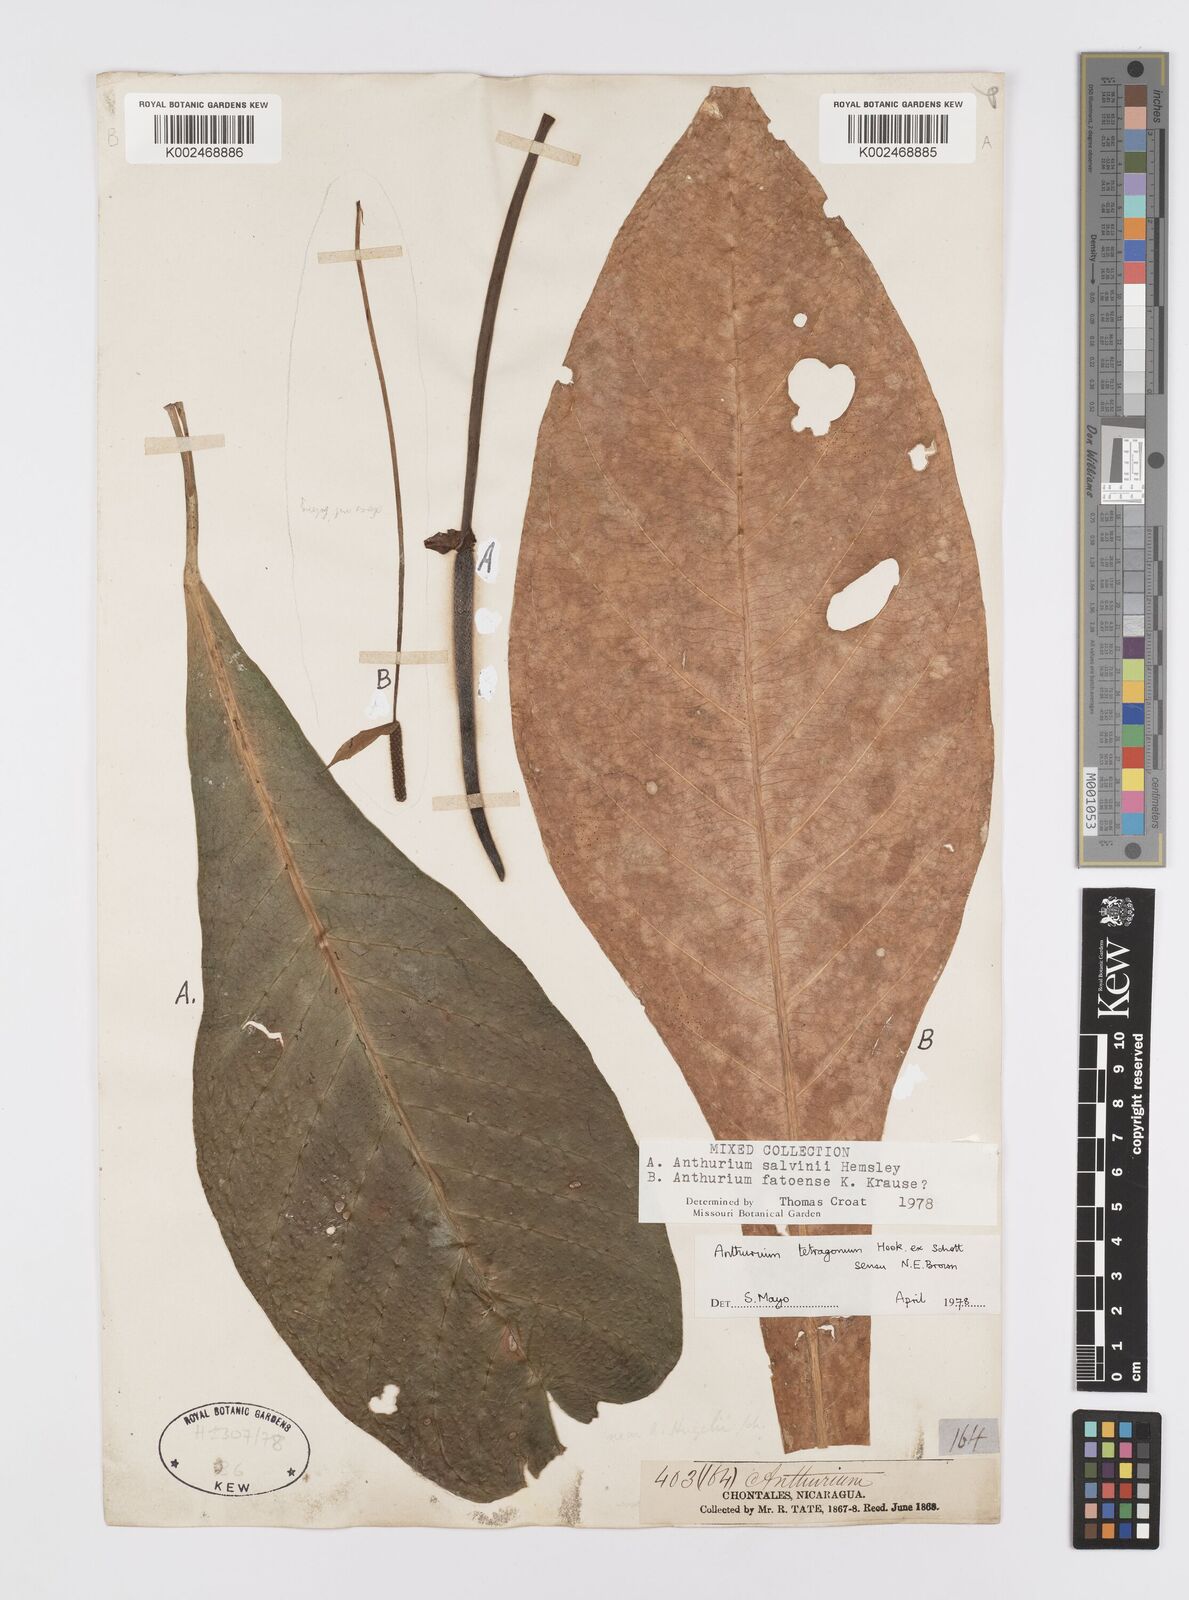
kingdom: Plantae
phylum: Tracheophyta
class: Liliopsida
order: Alismatales
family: Araceae
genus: Anthurium
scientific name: Anthurium salvinii
